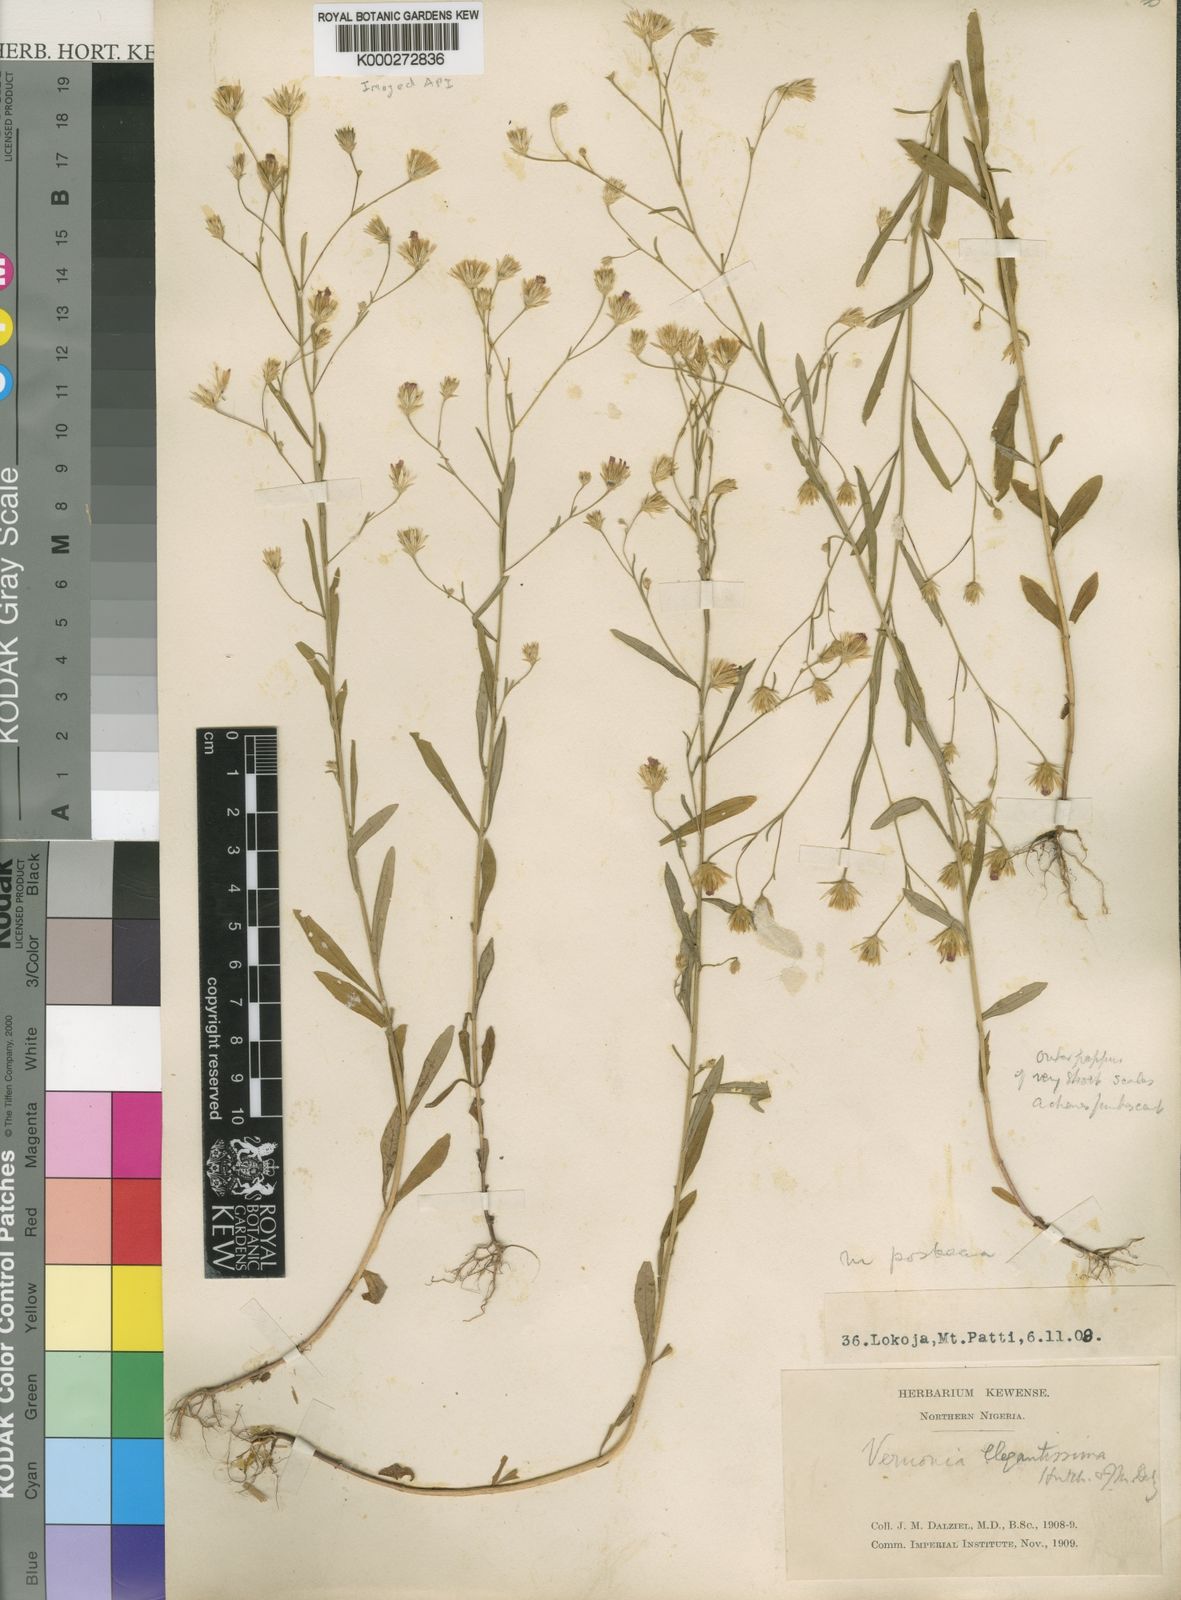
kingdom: Plantae
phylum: Tracheophyta
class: Magnoliopsida
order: Asterales
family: Asteraceae
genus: Crystallopollen
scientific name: Crystallopollen angustifolium
